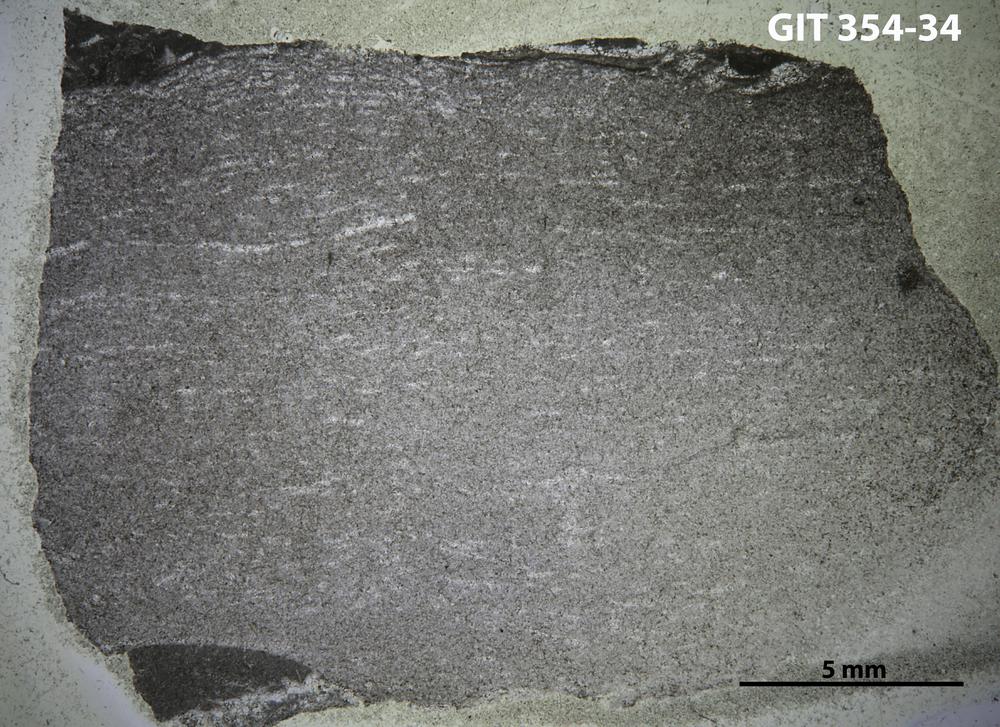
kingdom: Animalia
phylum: Porifera
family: Pseudolabechiidae
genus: Plumatalinia
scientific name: Plumatalinia ferax
